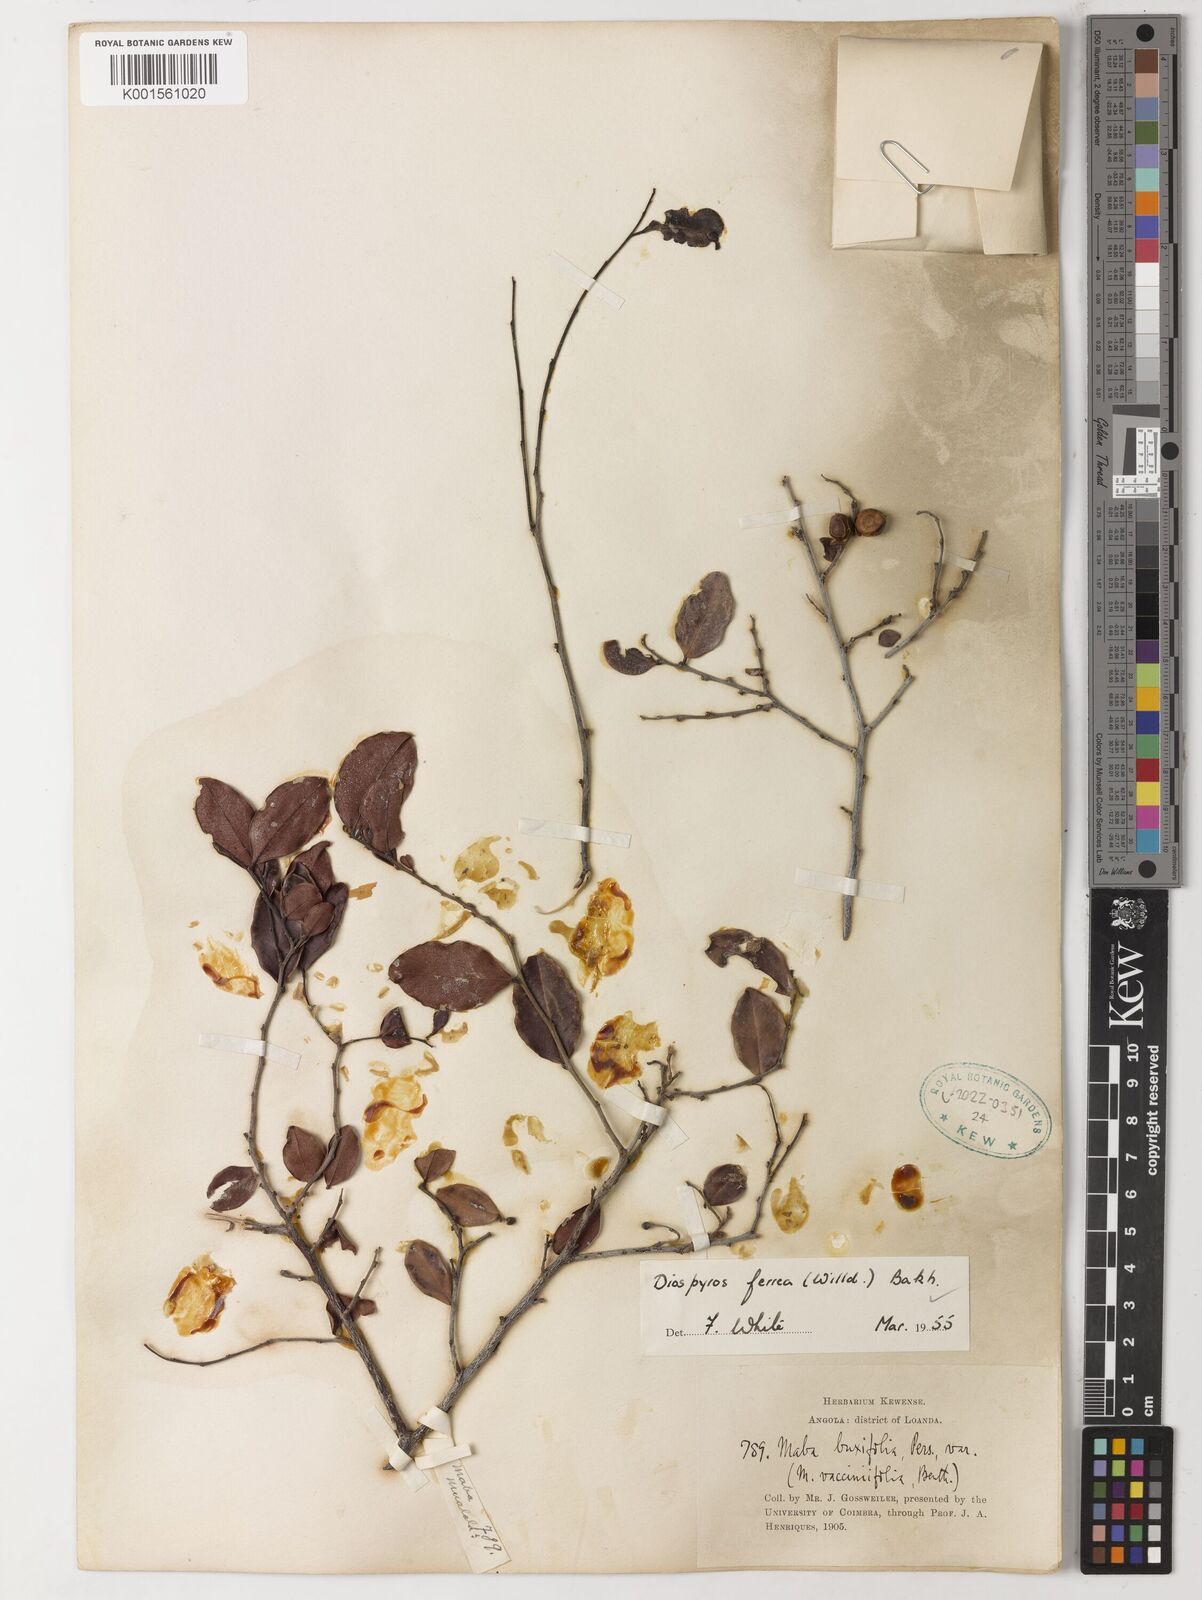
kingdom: Plantae
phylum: Tracheophyta
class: Magnoliopsida
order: Ericales
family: Ebenaceae
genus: Diospyros
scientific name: Diospyros ferrea
